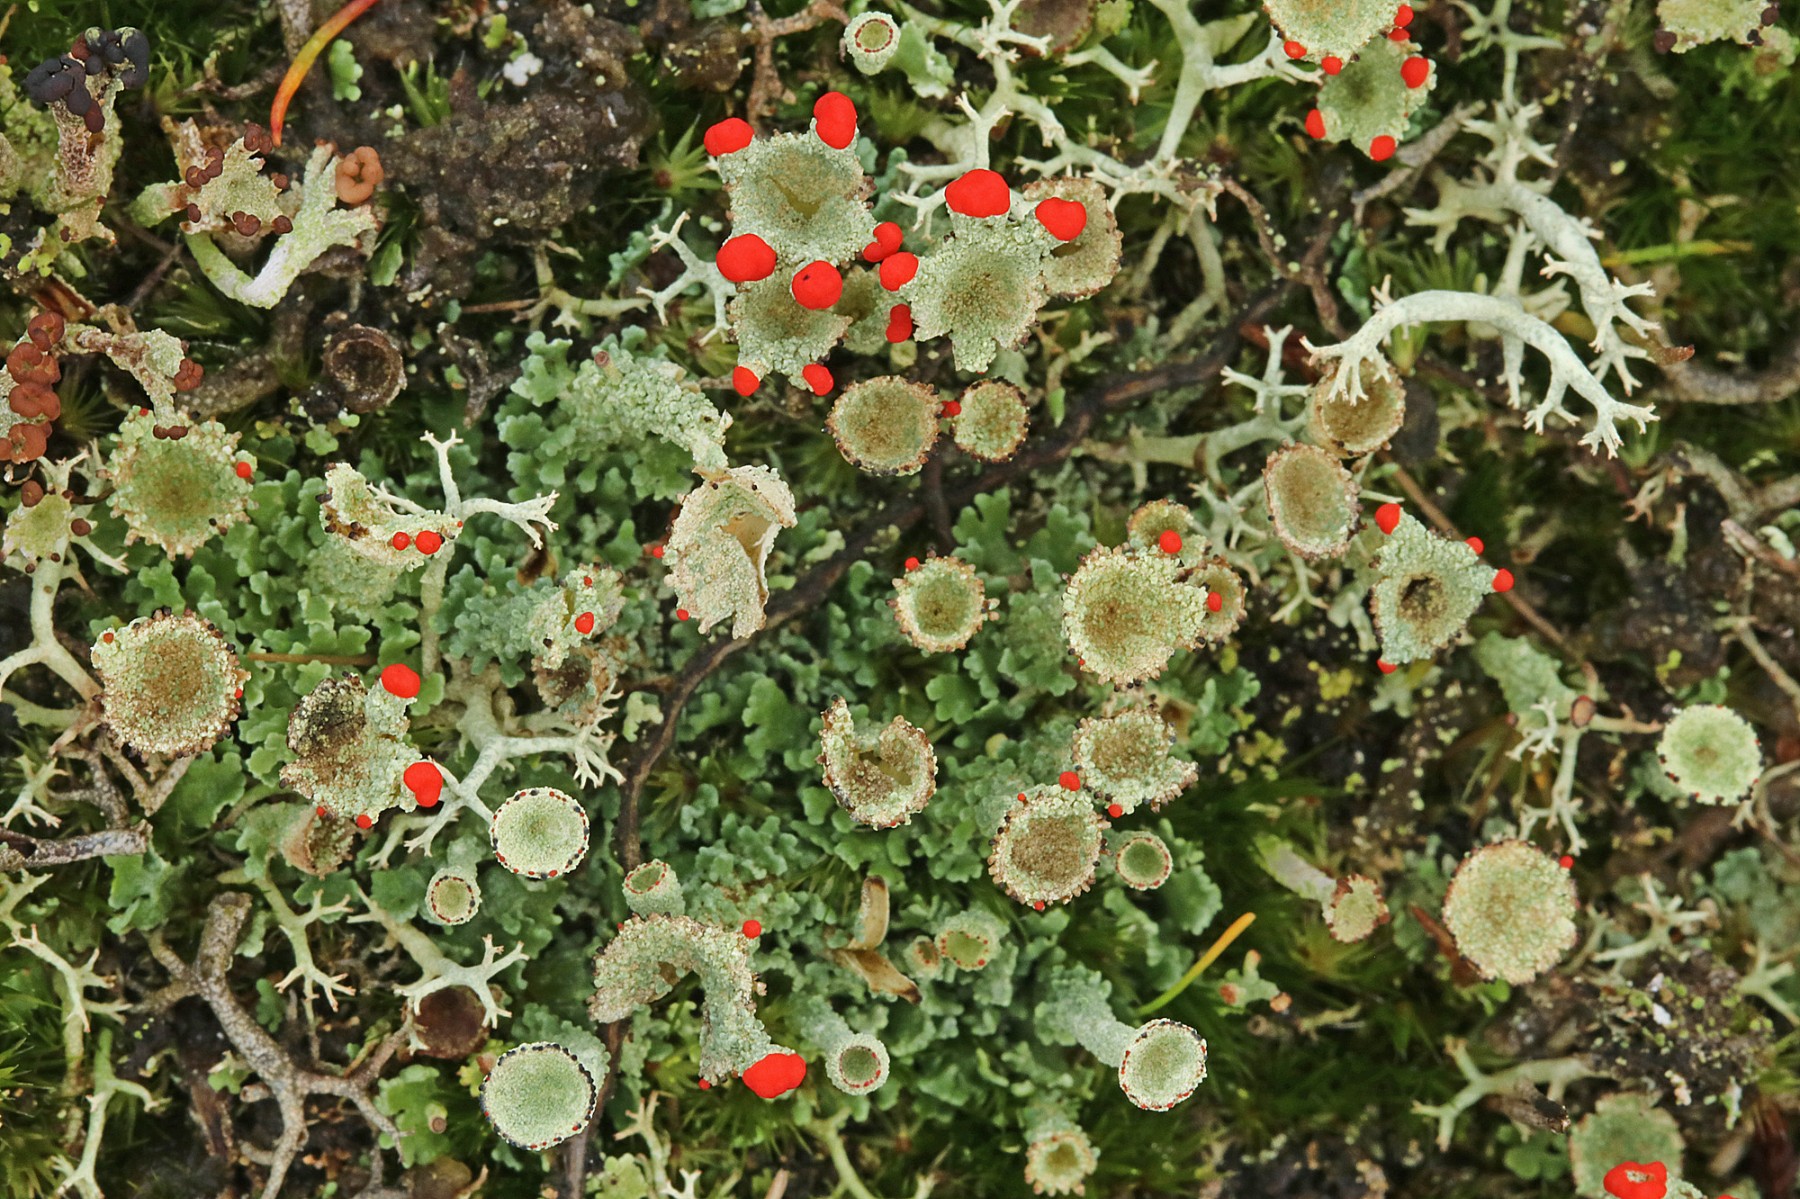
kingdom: Fungi
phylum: Ascomycota
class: Lecanoromycetes
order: Lecanorales
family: Cladoniaceae
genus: Cladonia
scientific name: Cladonia diversa
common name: rød bægerlav
